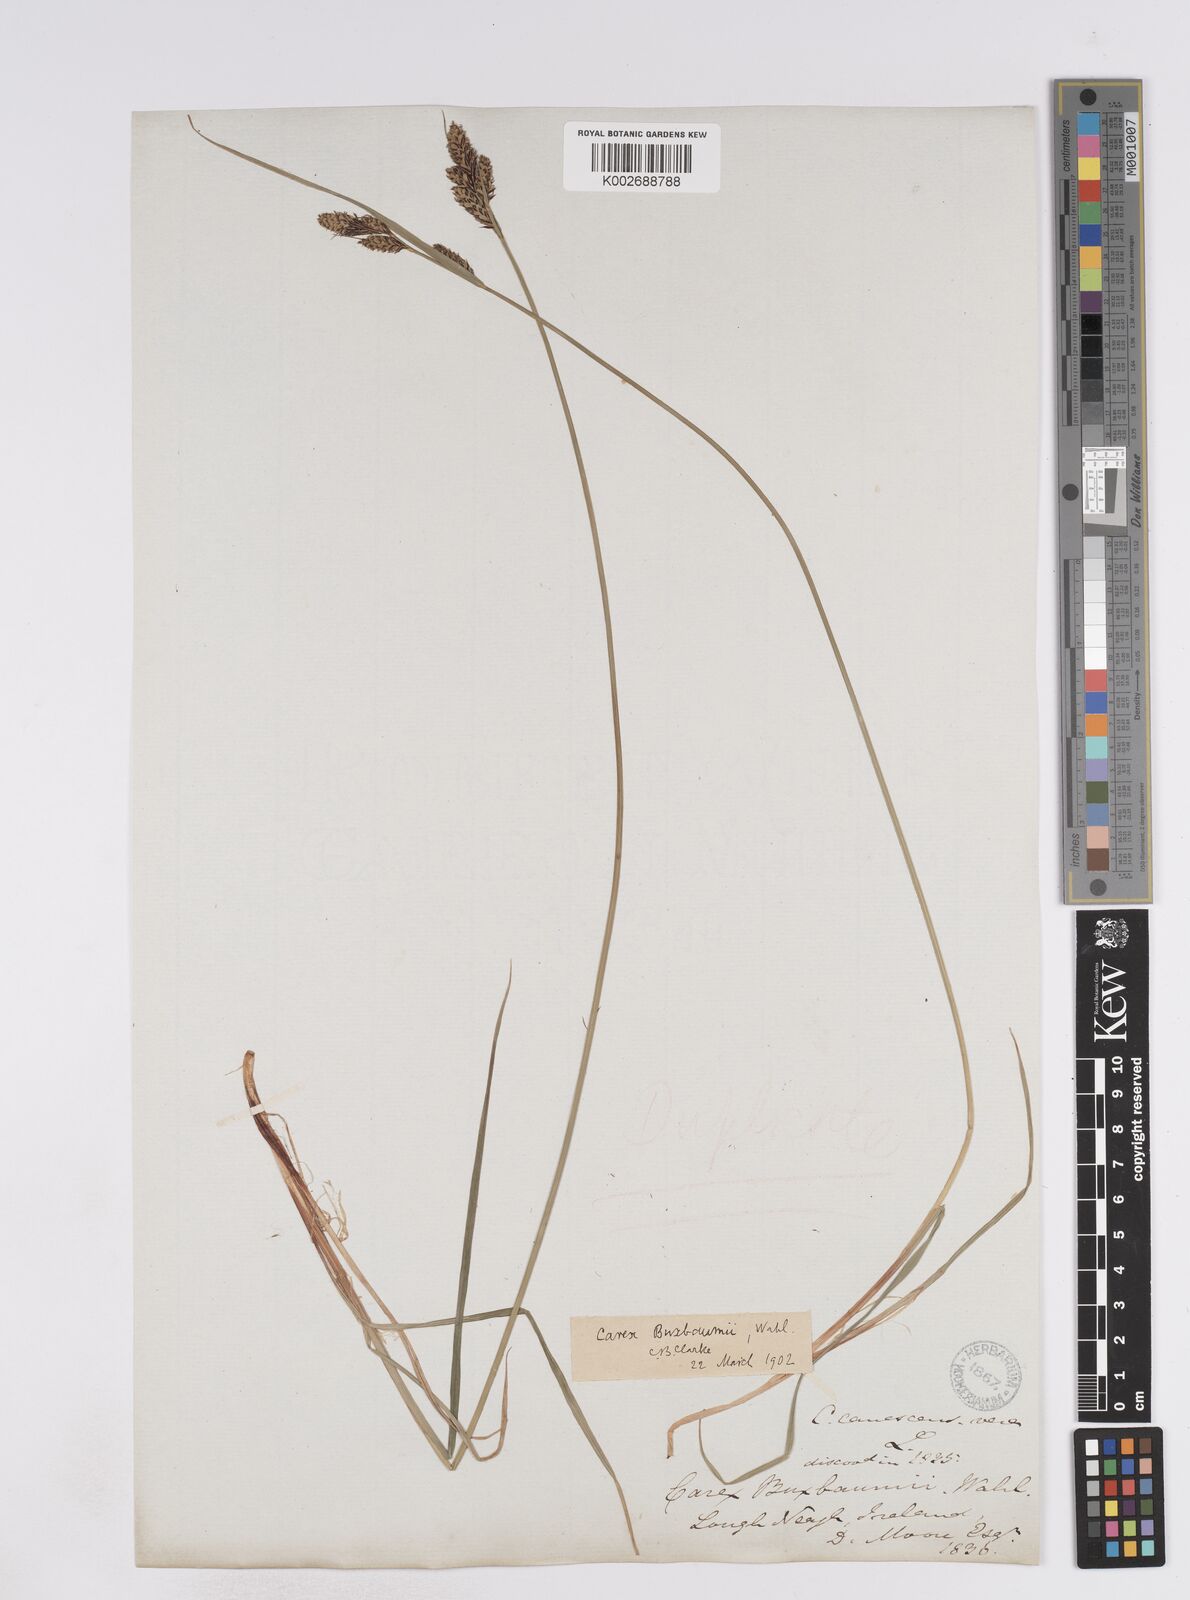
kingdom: Plantae
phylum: Tracheophyta
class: Liliopsida
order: Poales
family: Cyperaceae
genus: Carex
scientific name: Carex buxbaumii
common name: Club sedge
